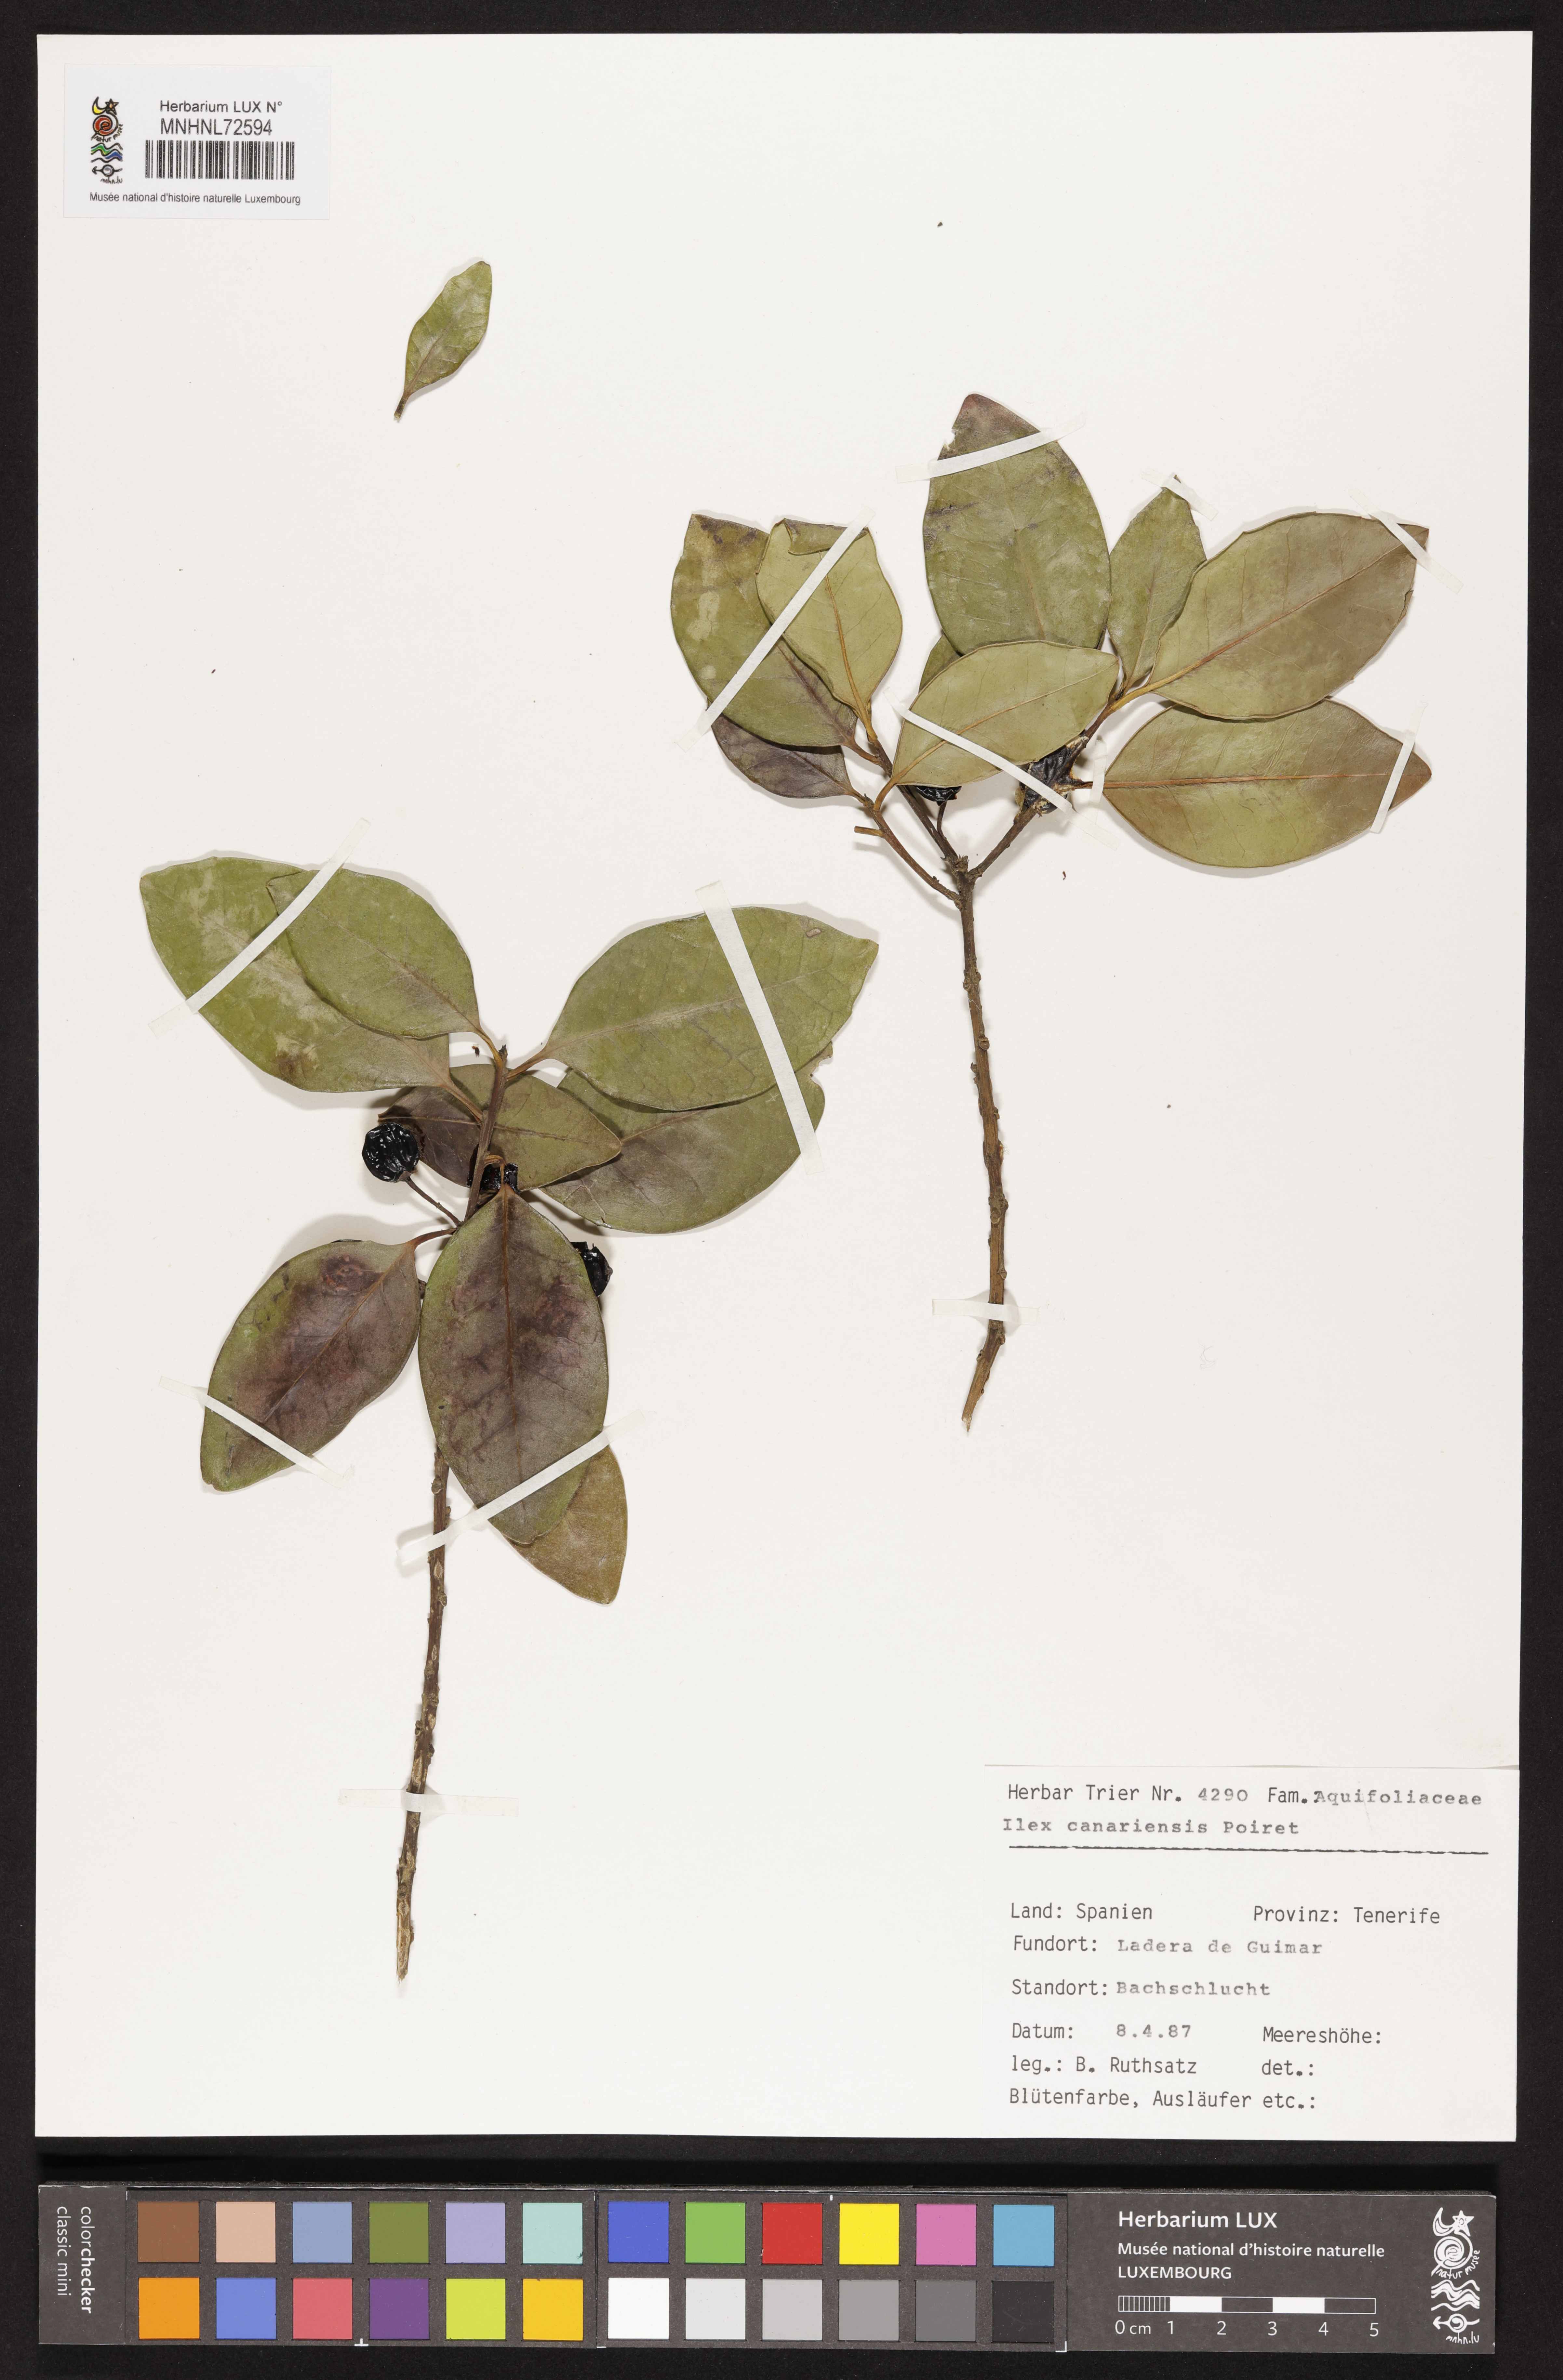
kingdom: Plantae
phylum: Tracheophyta
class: Magnoliopsida
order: Aquifoliales
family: Aquifoliaceae
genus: Ilex
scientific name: Ilex canariensis
